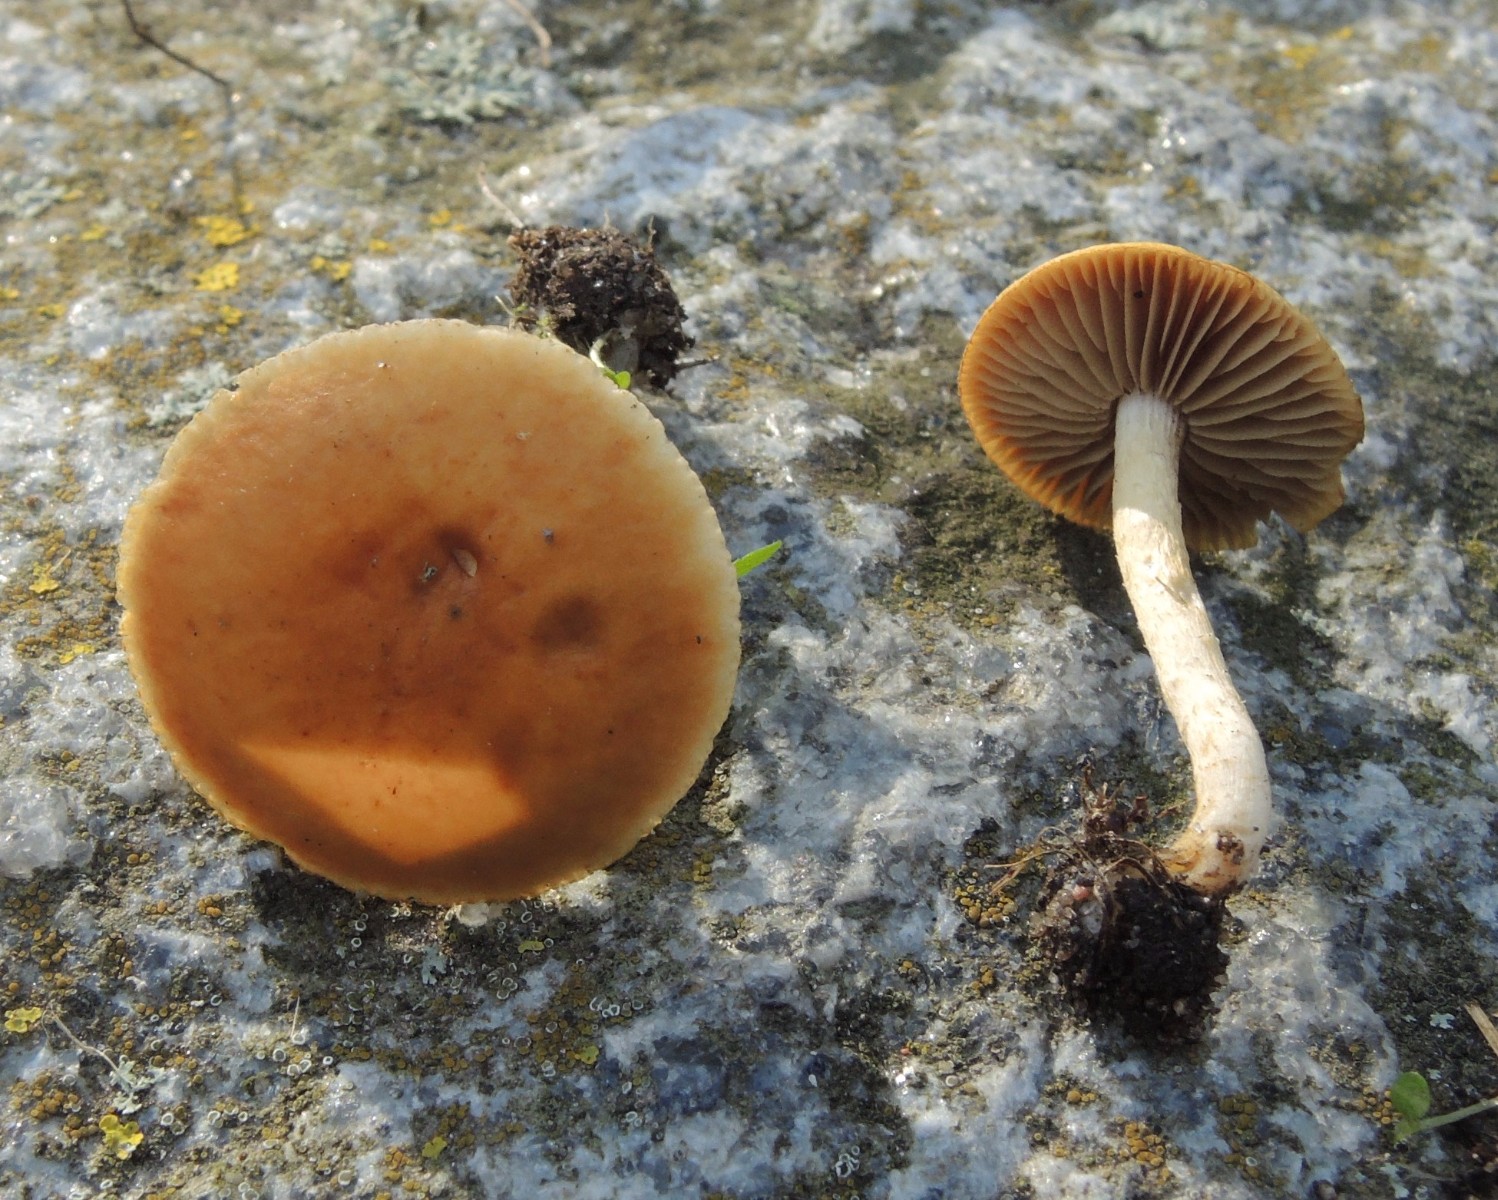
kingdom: Fungi
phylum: Basidiomycota
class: Agaricomycetes
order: Agaricales
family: Strophariaceae
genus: Agrocybe
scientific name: Agrocybe vervacti
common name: lav agerhat
